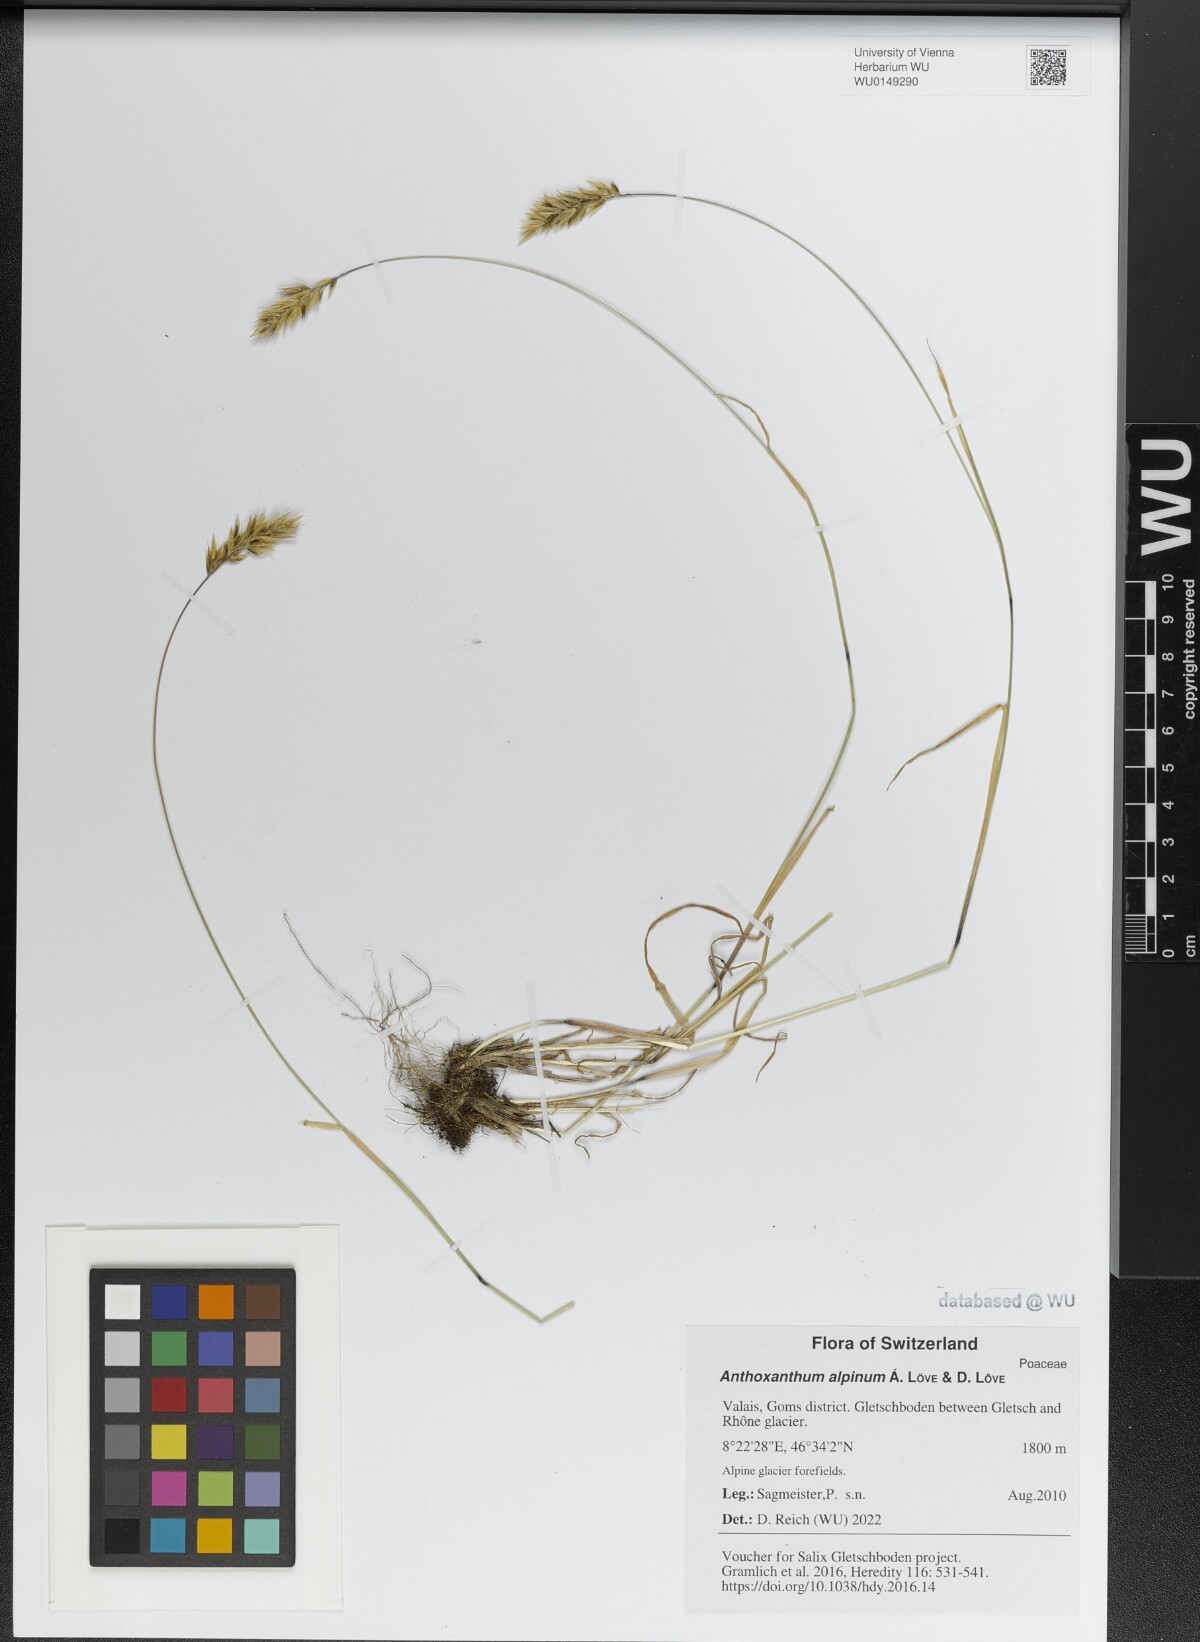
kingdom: Plantae
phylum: Tracheophyta
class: Liliopsida
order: Poales
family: Poaceae
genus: Anthoxanthum
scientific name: Anthoxanthum nipponicum
